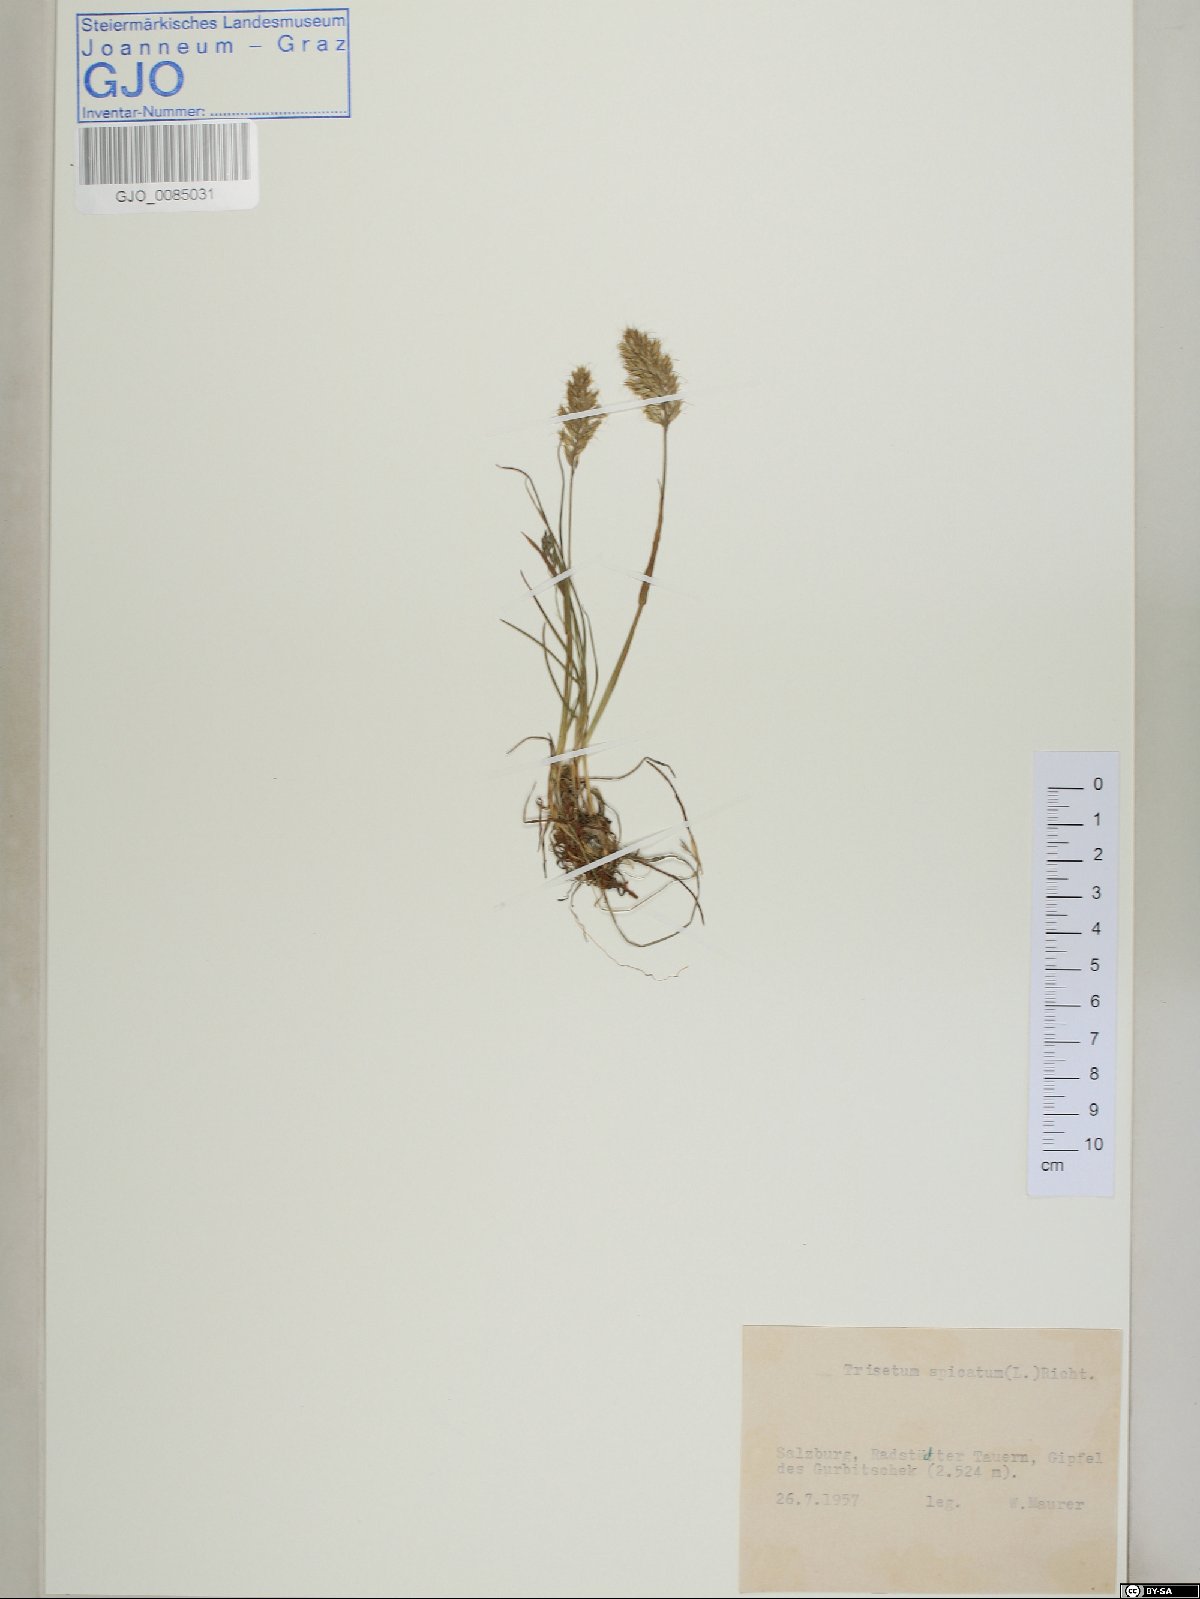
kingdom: Plantae
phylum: Tracheophyta
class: Liliopsida
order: Poales
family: Poaceae
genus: Koeleria
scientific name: Koeleria spicata
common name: Mountain trisetum
